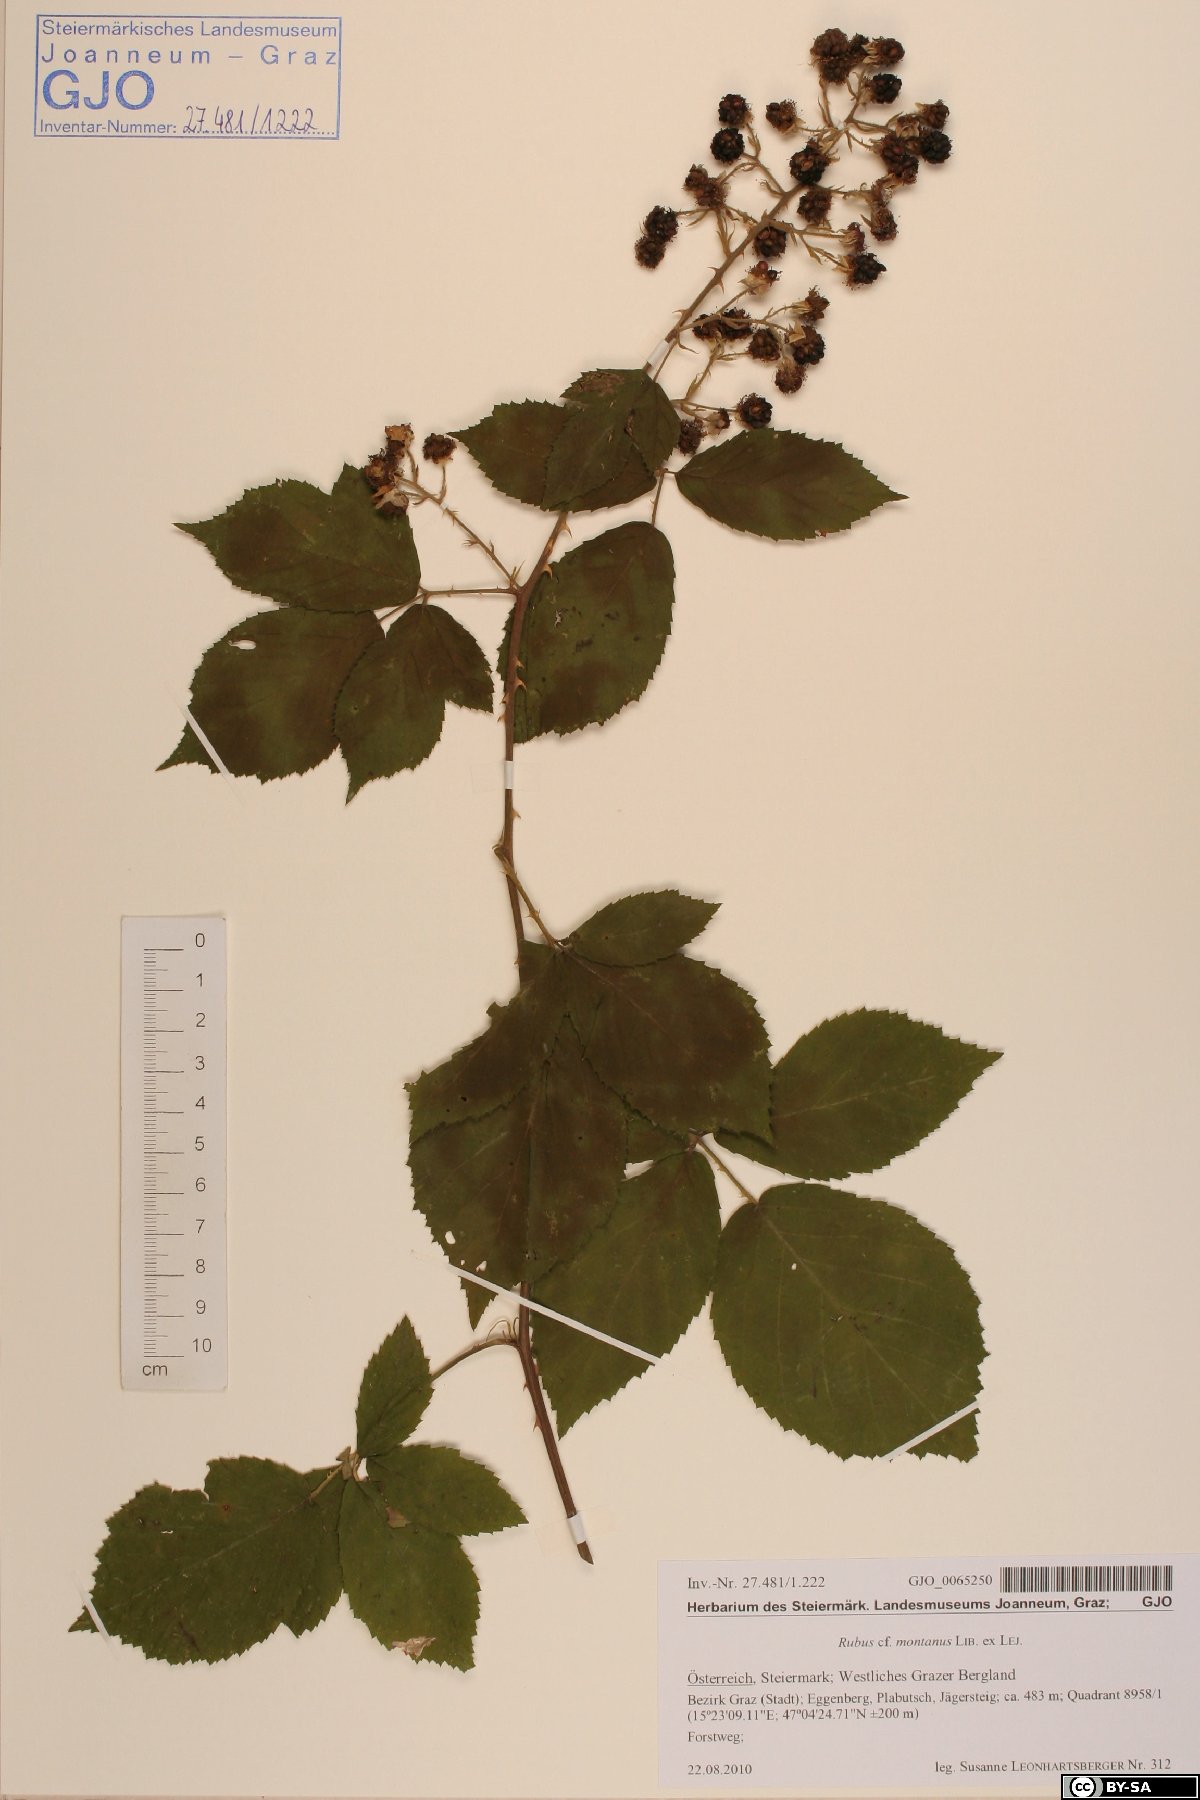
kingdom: Plantae
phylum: Tracheophyta
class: Magnoliopsida
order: Rosales
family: Rosaceae
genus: Rubus
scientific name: Rubus montanus
